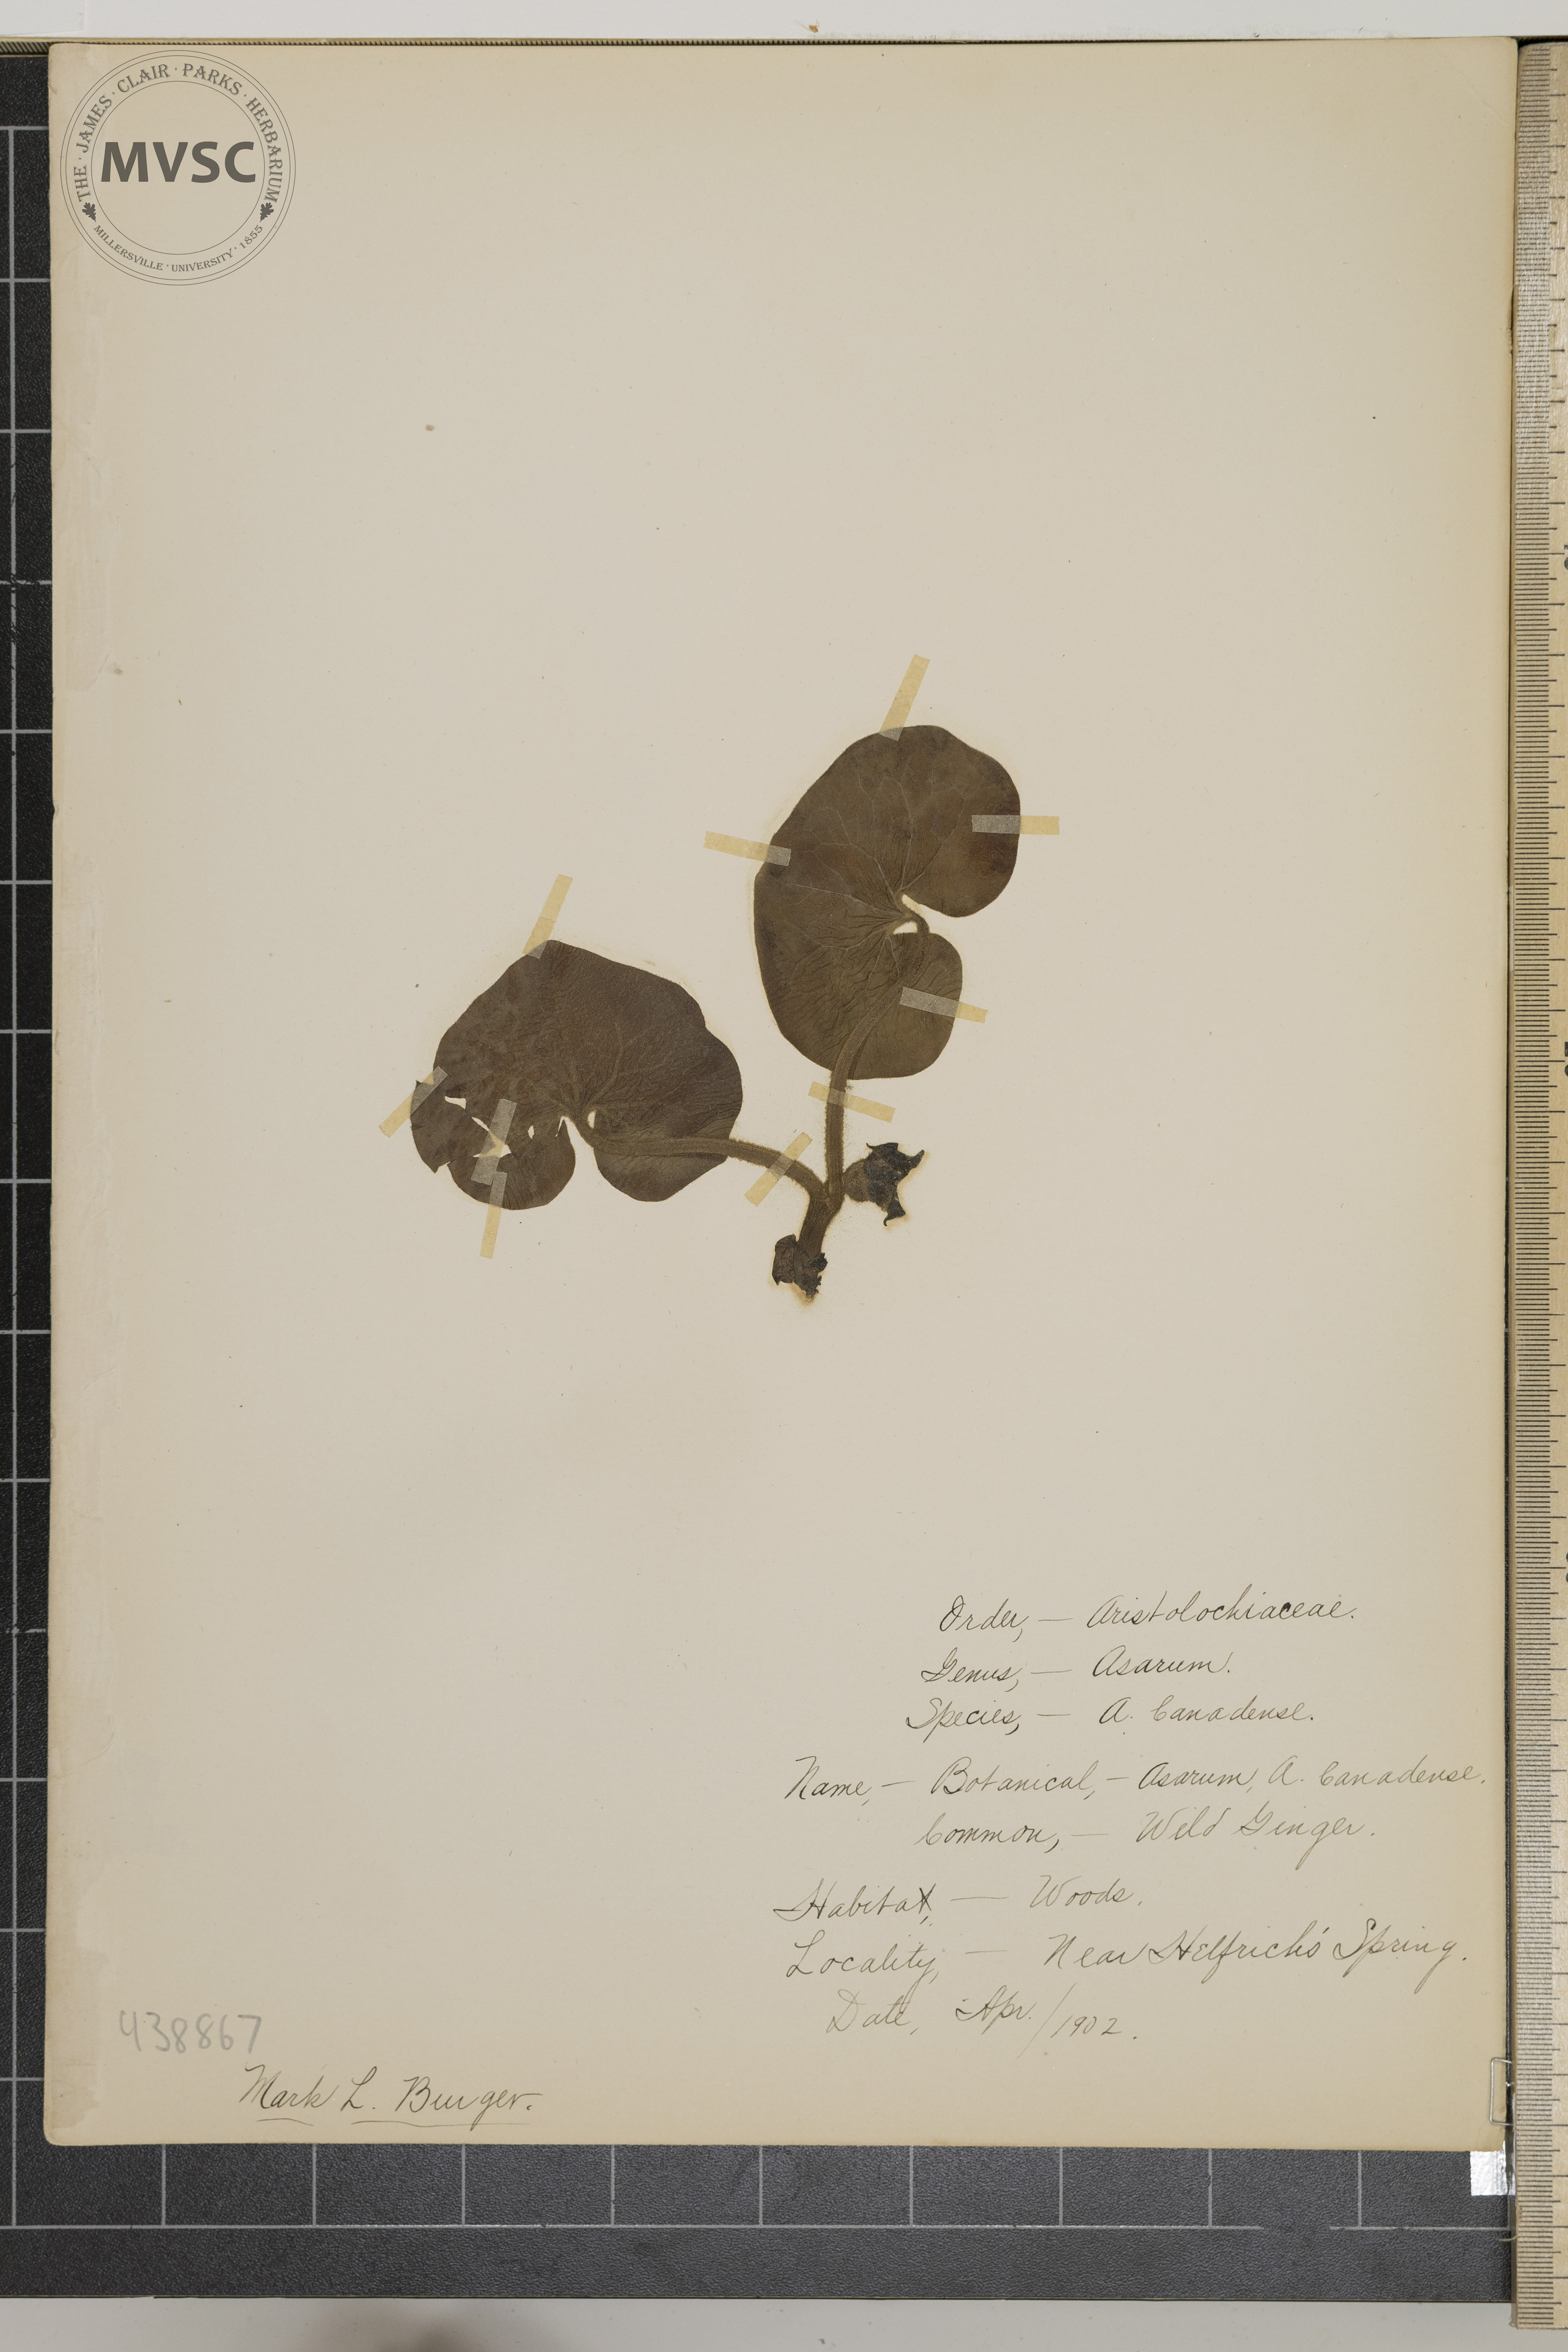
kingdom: Plantae
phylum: Tracheophyta
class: Magnoliopsida
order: Piperales
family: Aristolochiaceae
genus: Asarum
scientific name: Asarum canadense
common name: Wild ginger
